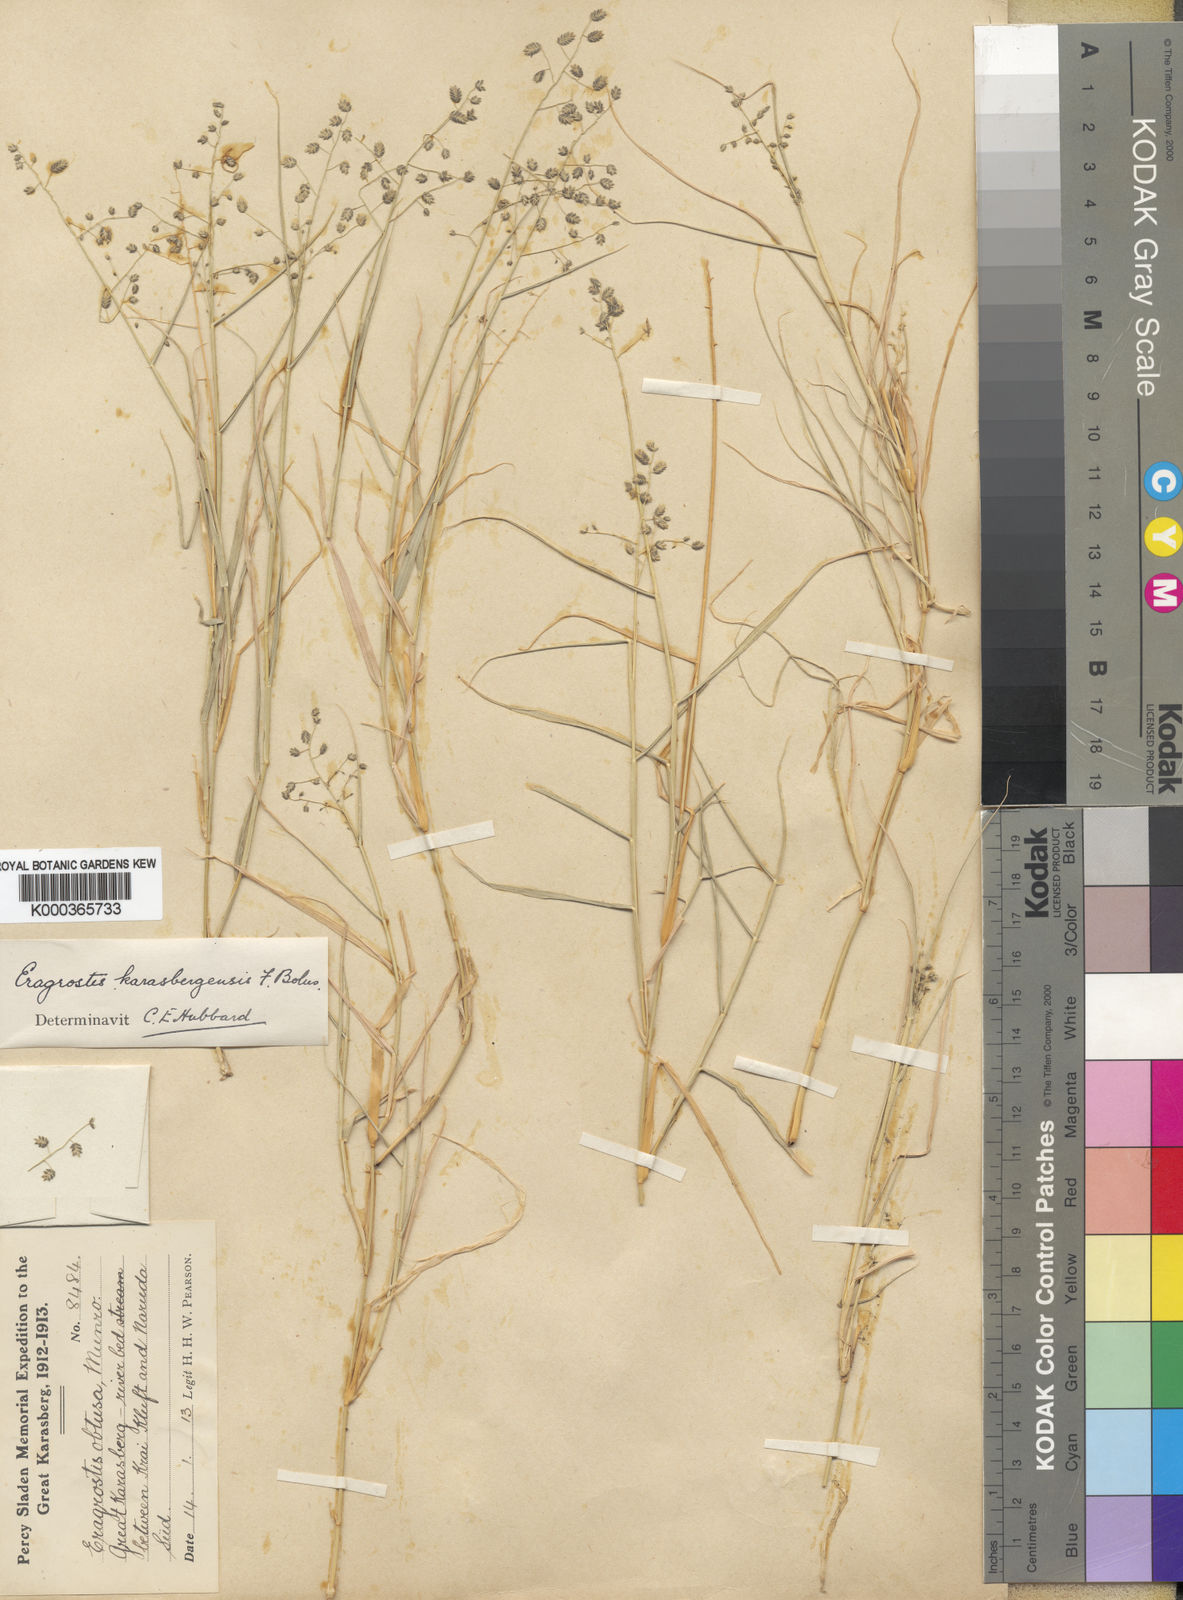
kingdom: Plantae
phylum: Tracheophyta
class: Liliopsida
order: Poales
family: Poaceae
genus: Eragrostis
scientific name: Eragrostis scopelophila
